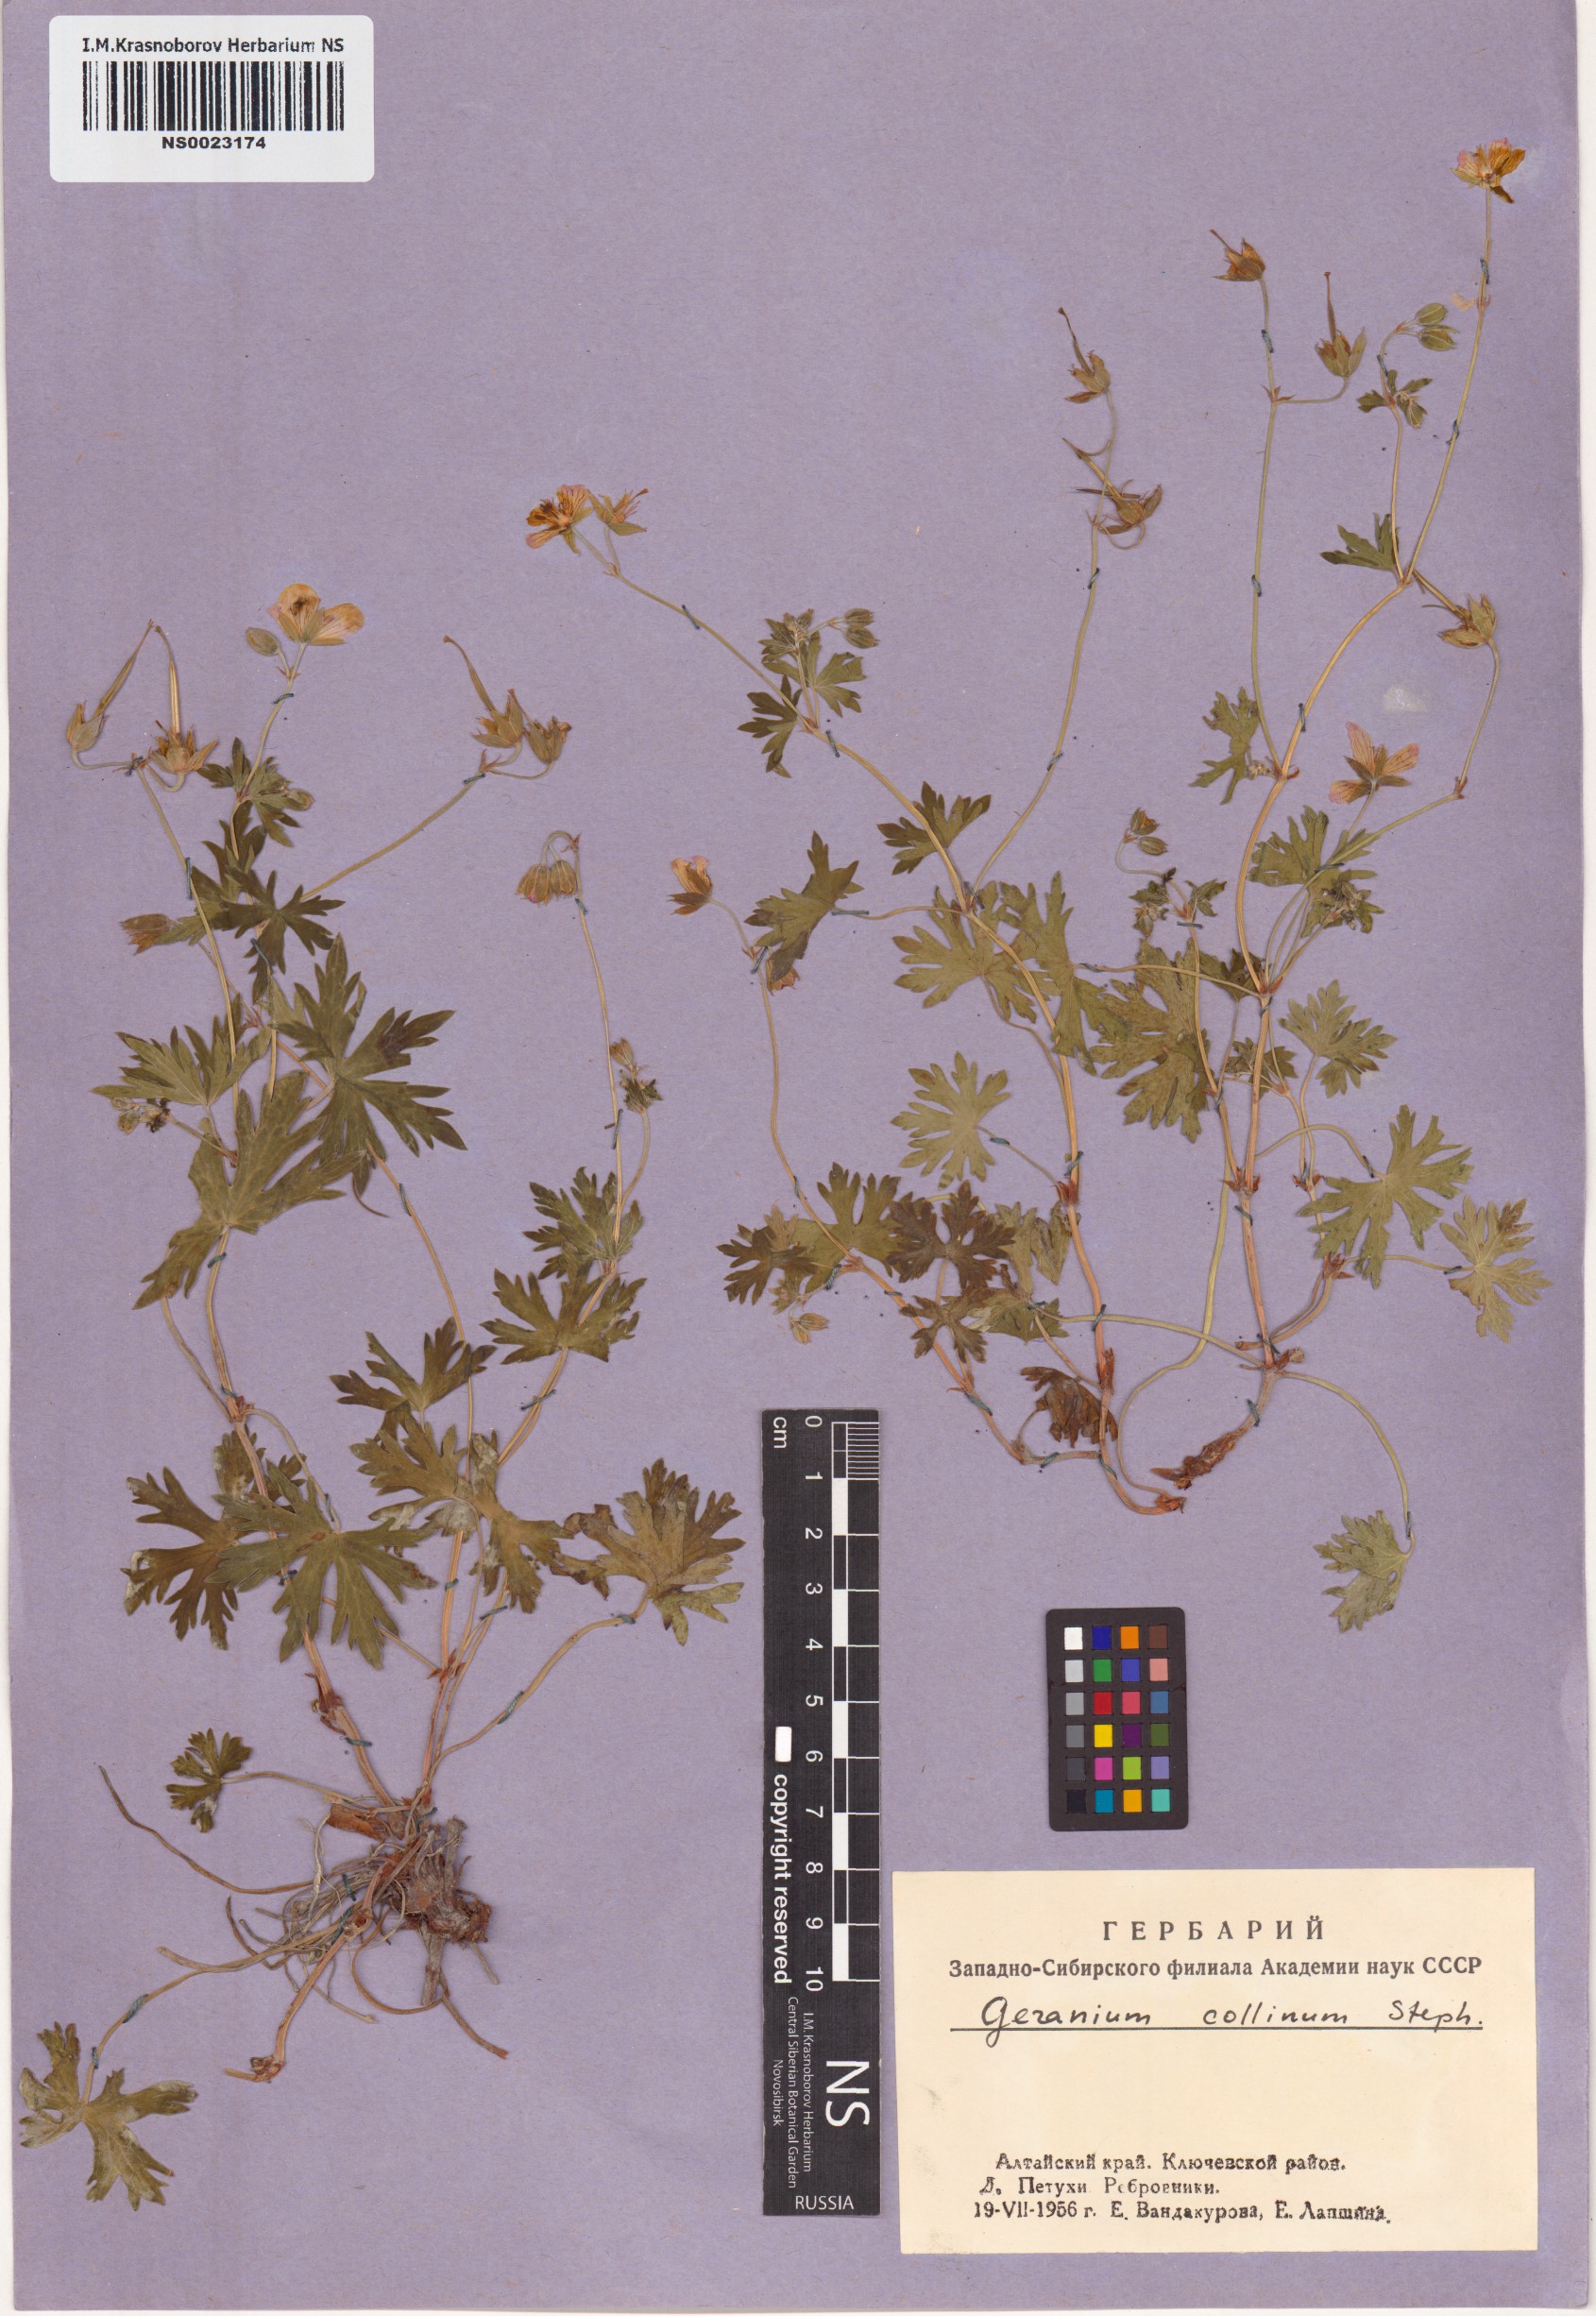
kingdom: Plantae
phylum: Tracheophyta
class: Magnoliopsida
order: Geraniales
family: Geraniaceae
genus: Geranium
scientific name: Geranium collinum
